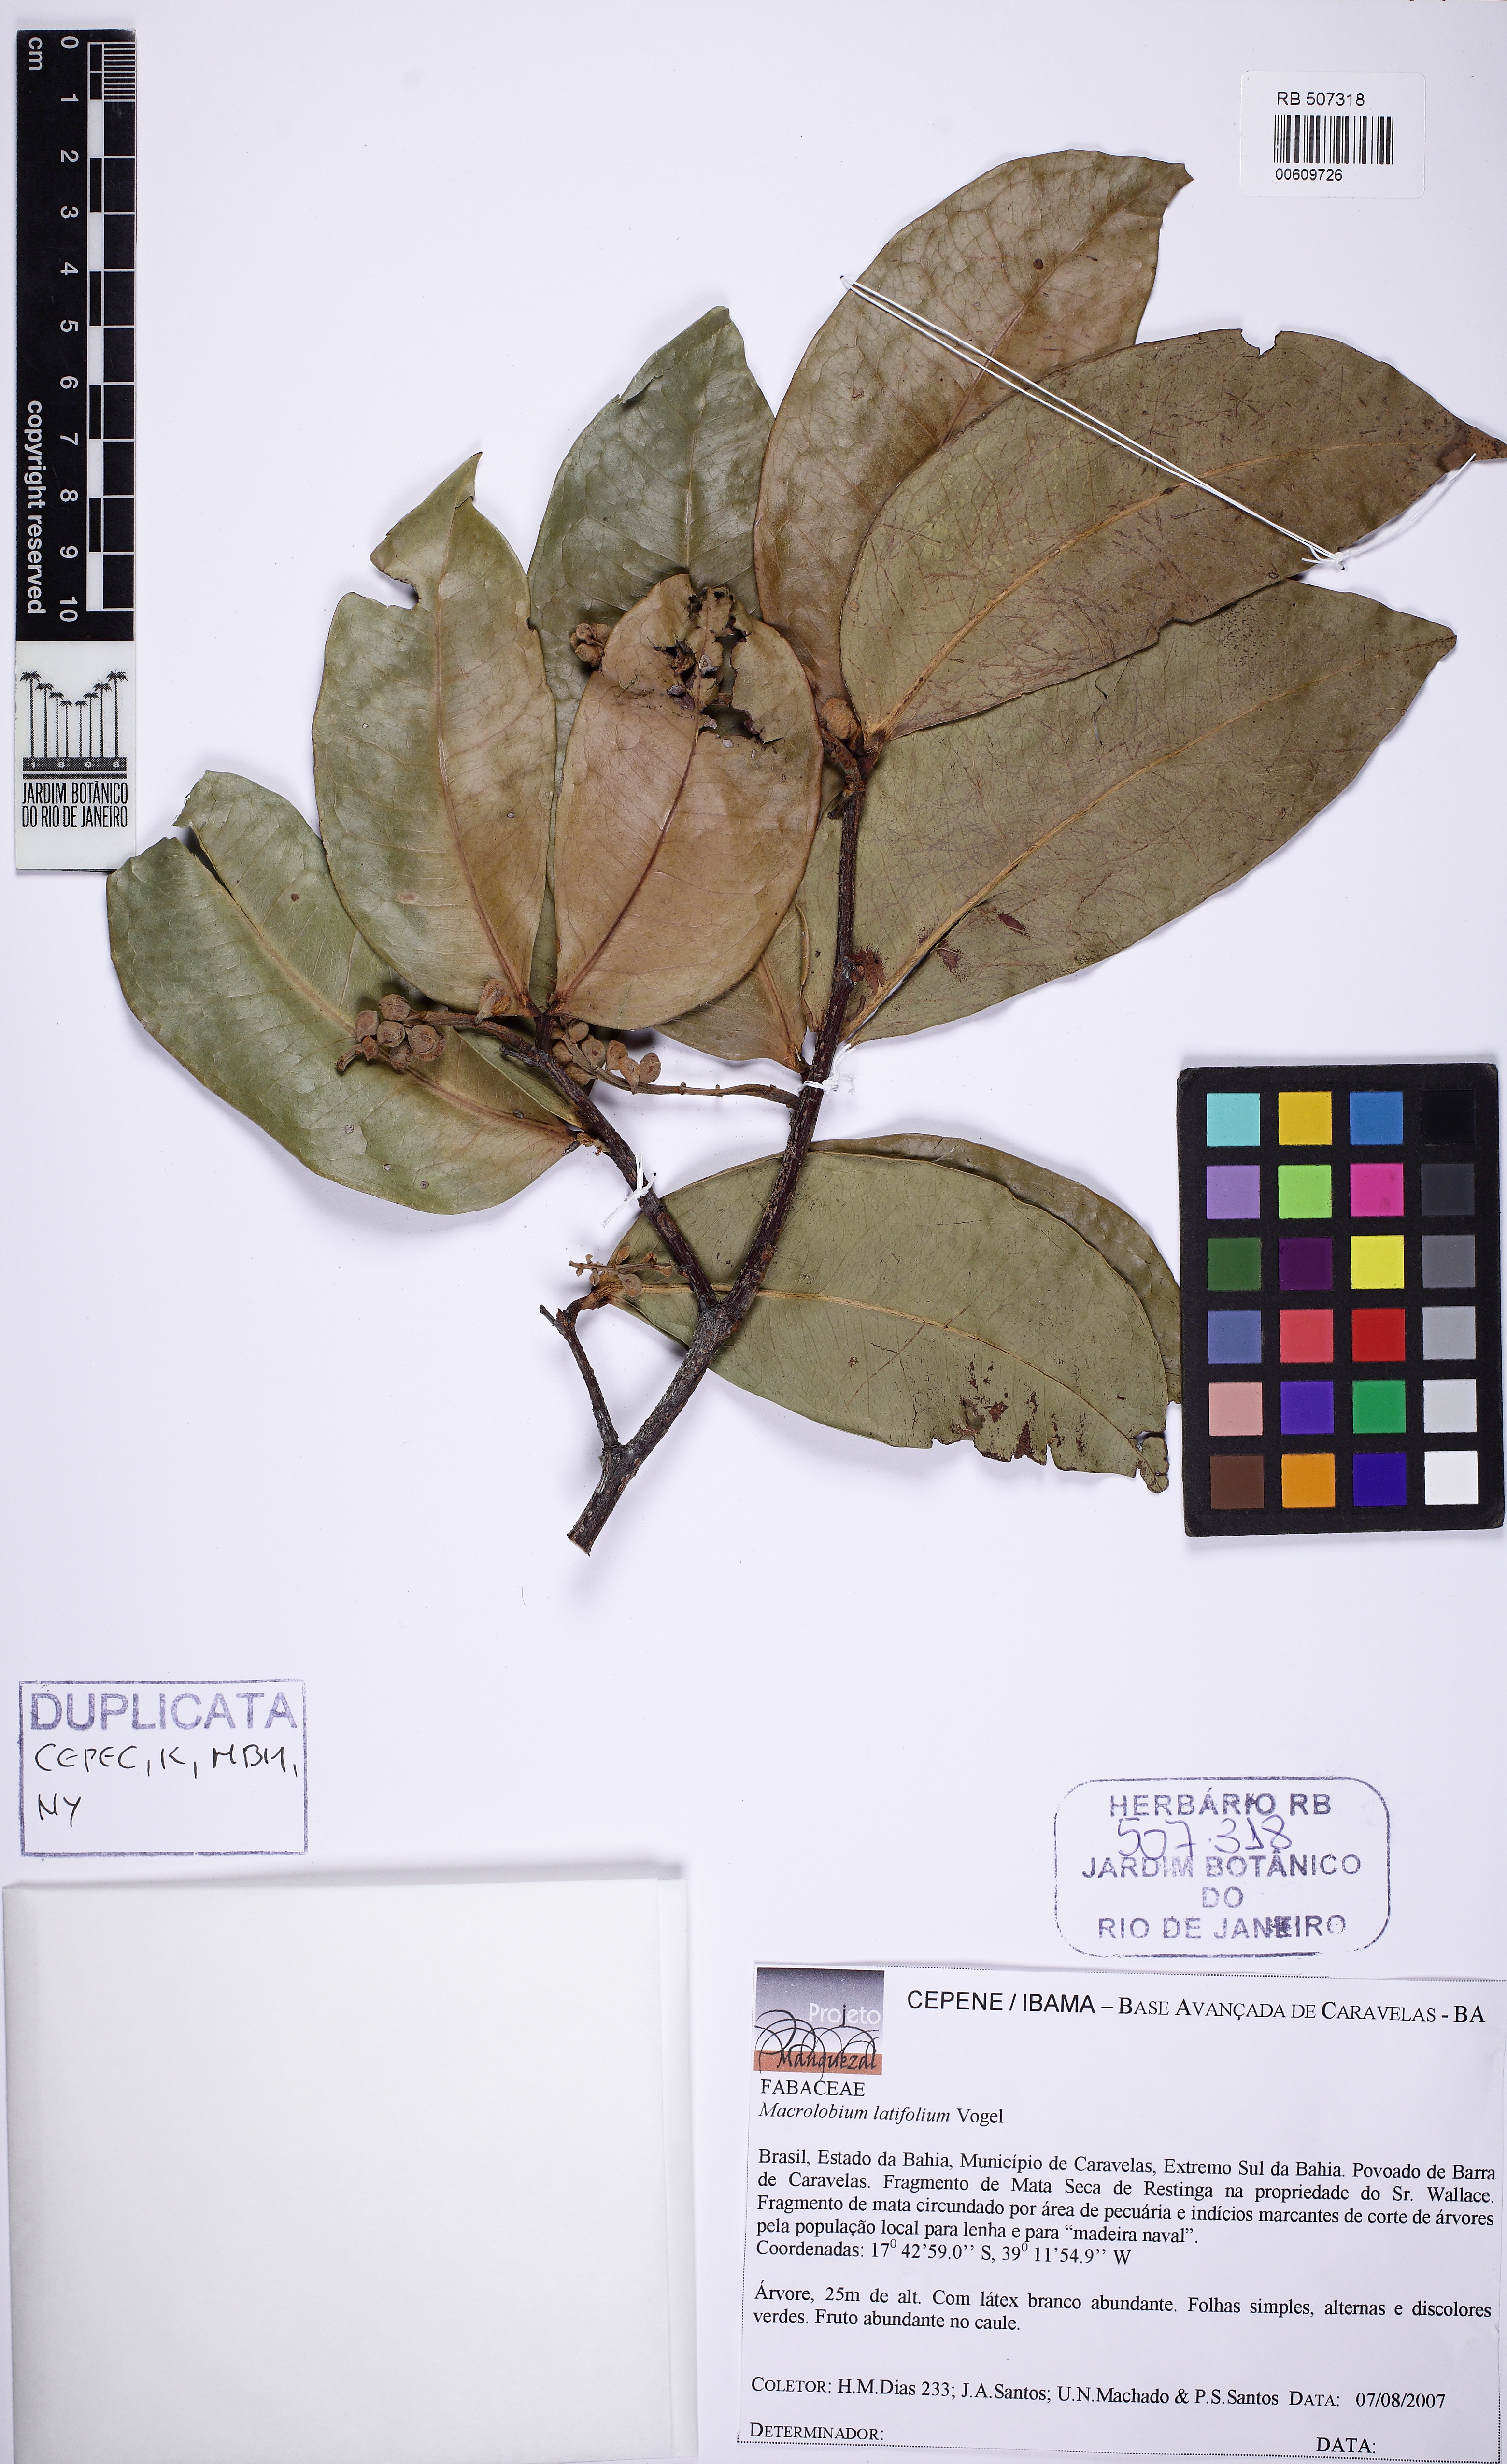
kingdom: Plantae
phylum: Tracheophyta
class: Magnoliopsida
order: Fabales
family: Fabaceae
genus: Macrolobium
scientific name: Macrolobium latifolium
